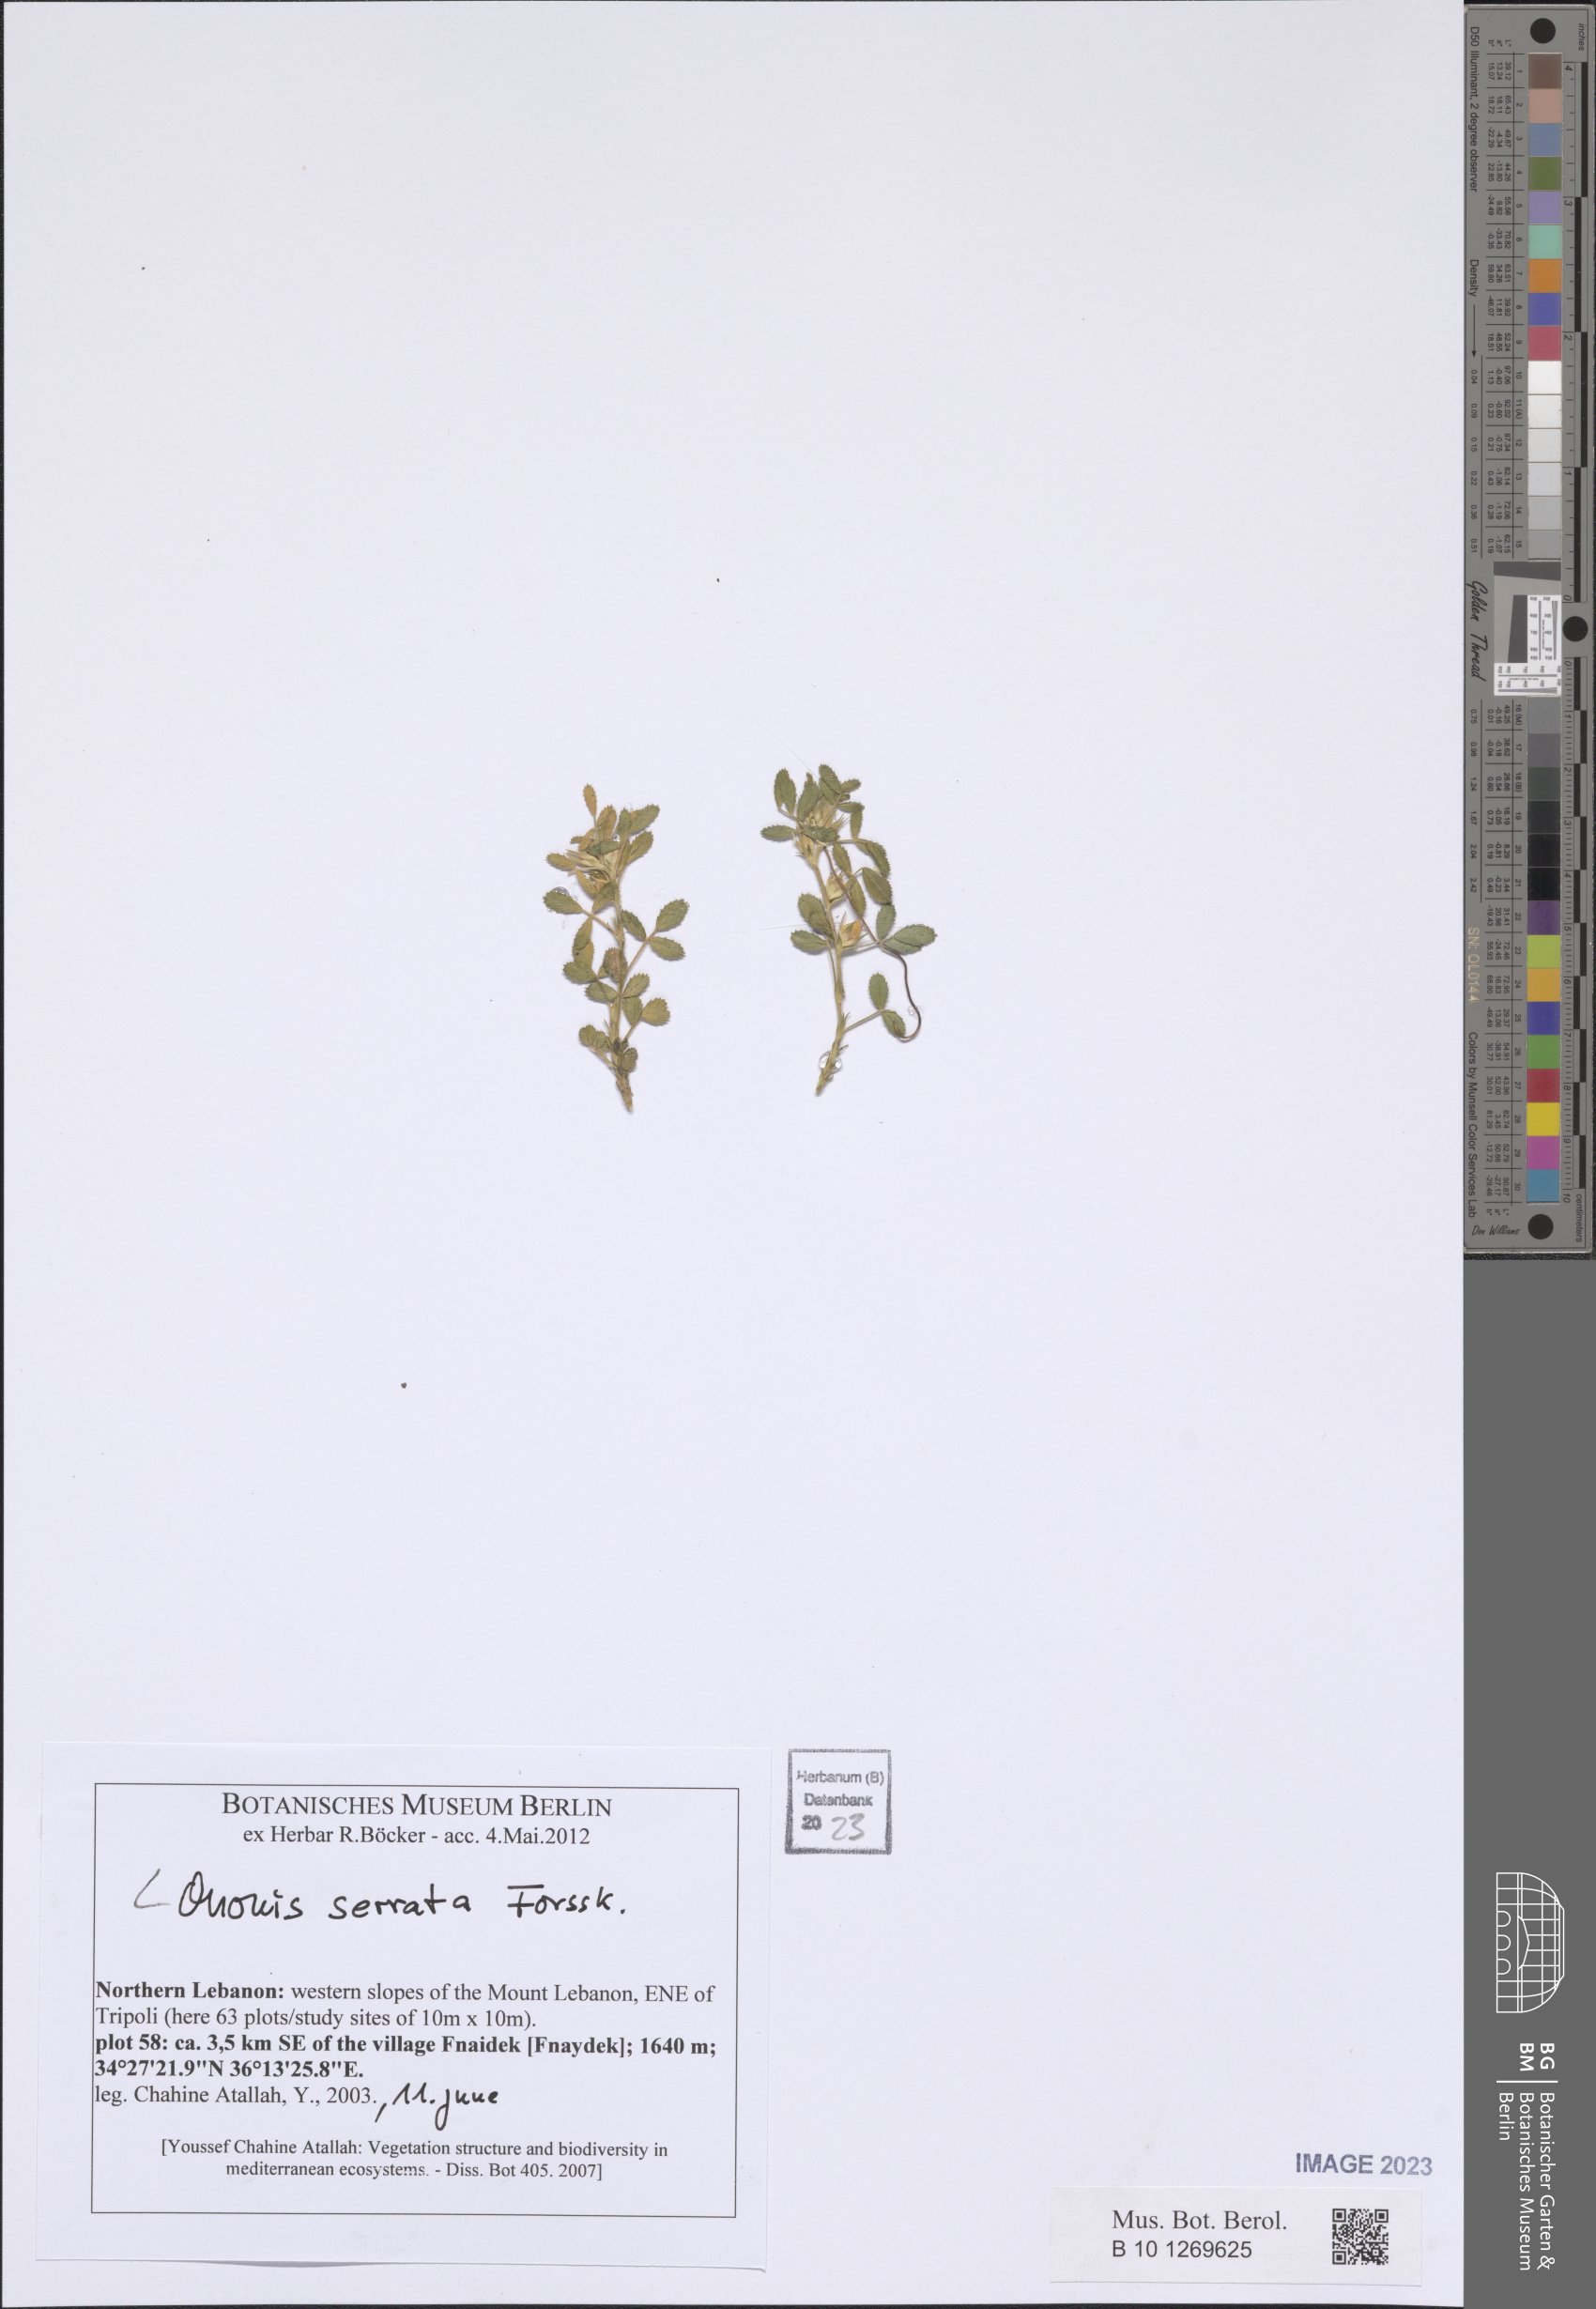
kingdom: Plantae
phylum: Tracheophyta
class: Magnoliopsida
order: Fabales
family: Fabaceae
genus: Ononis
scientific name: Ononis serrata
